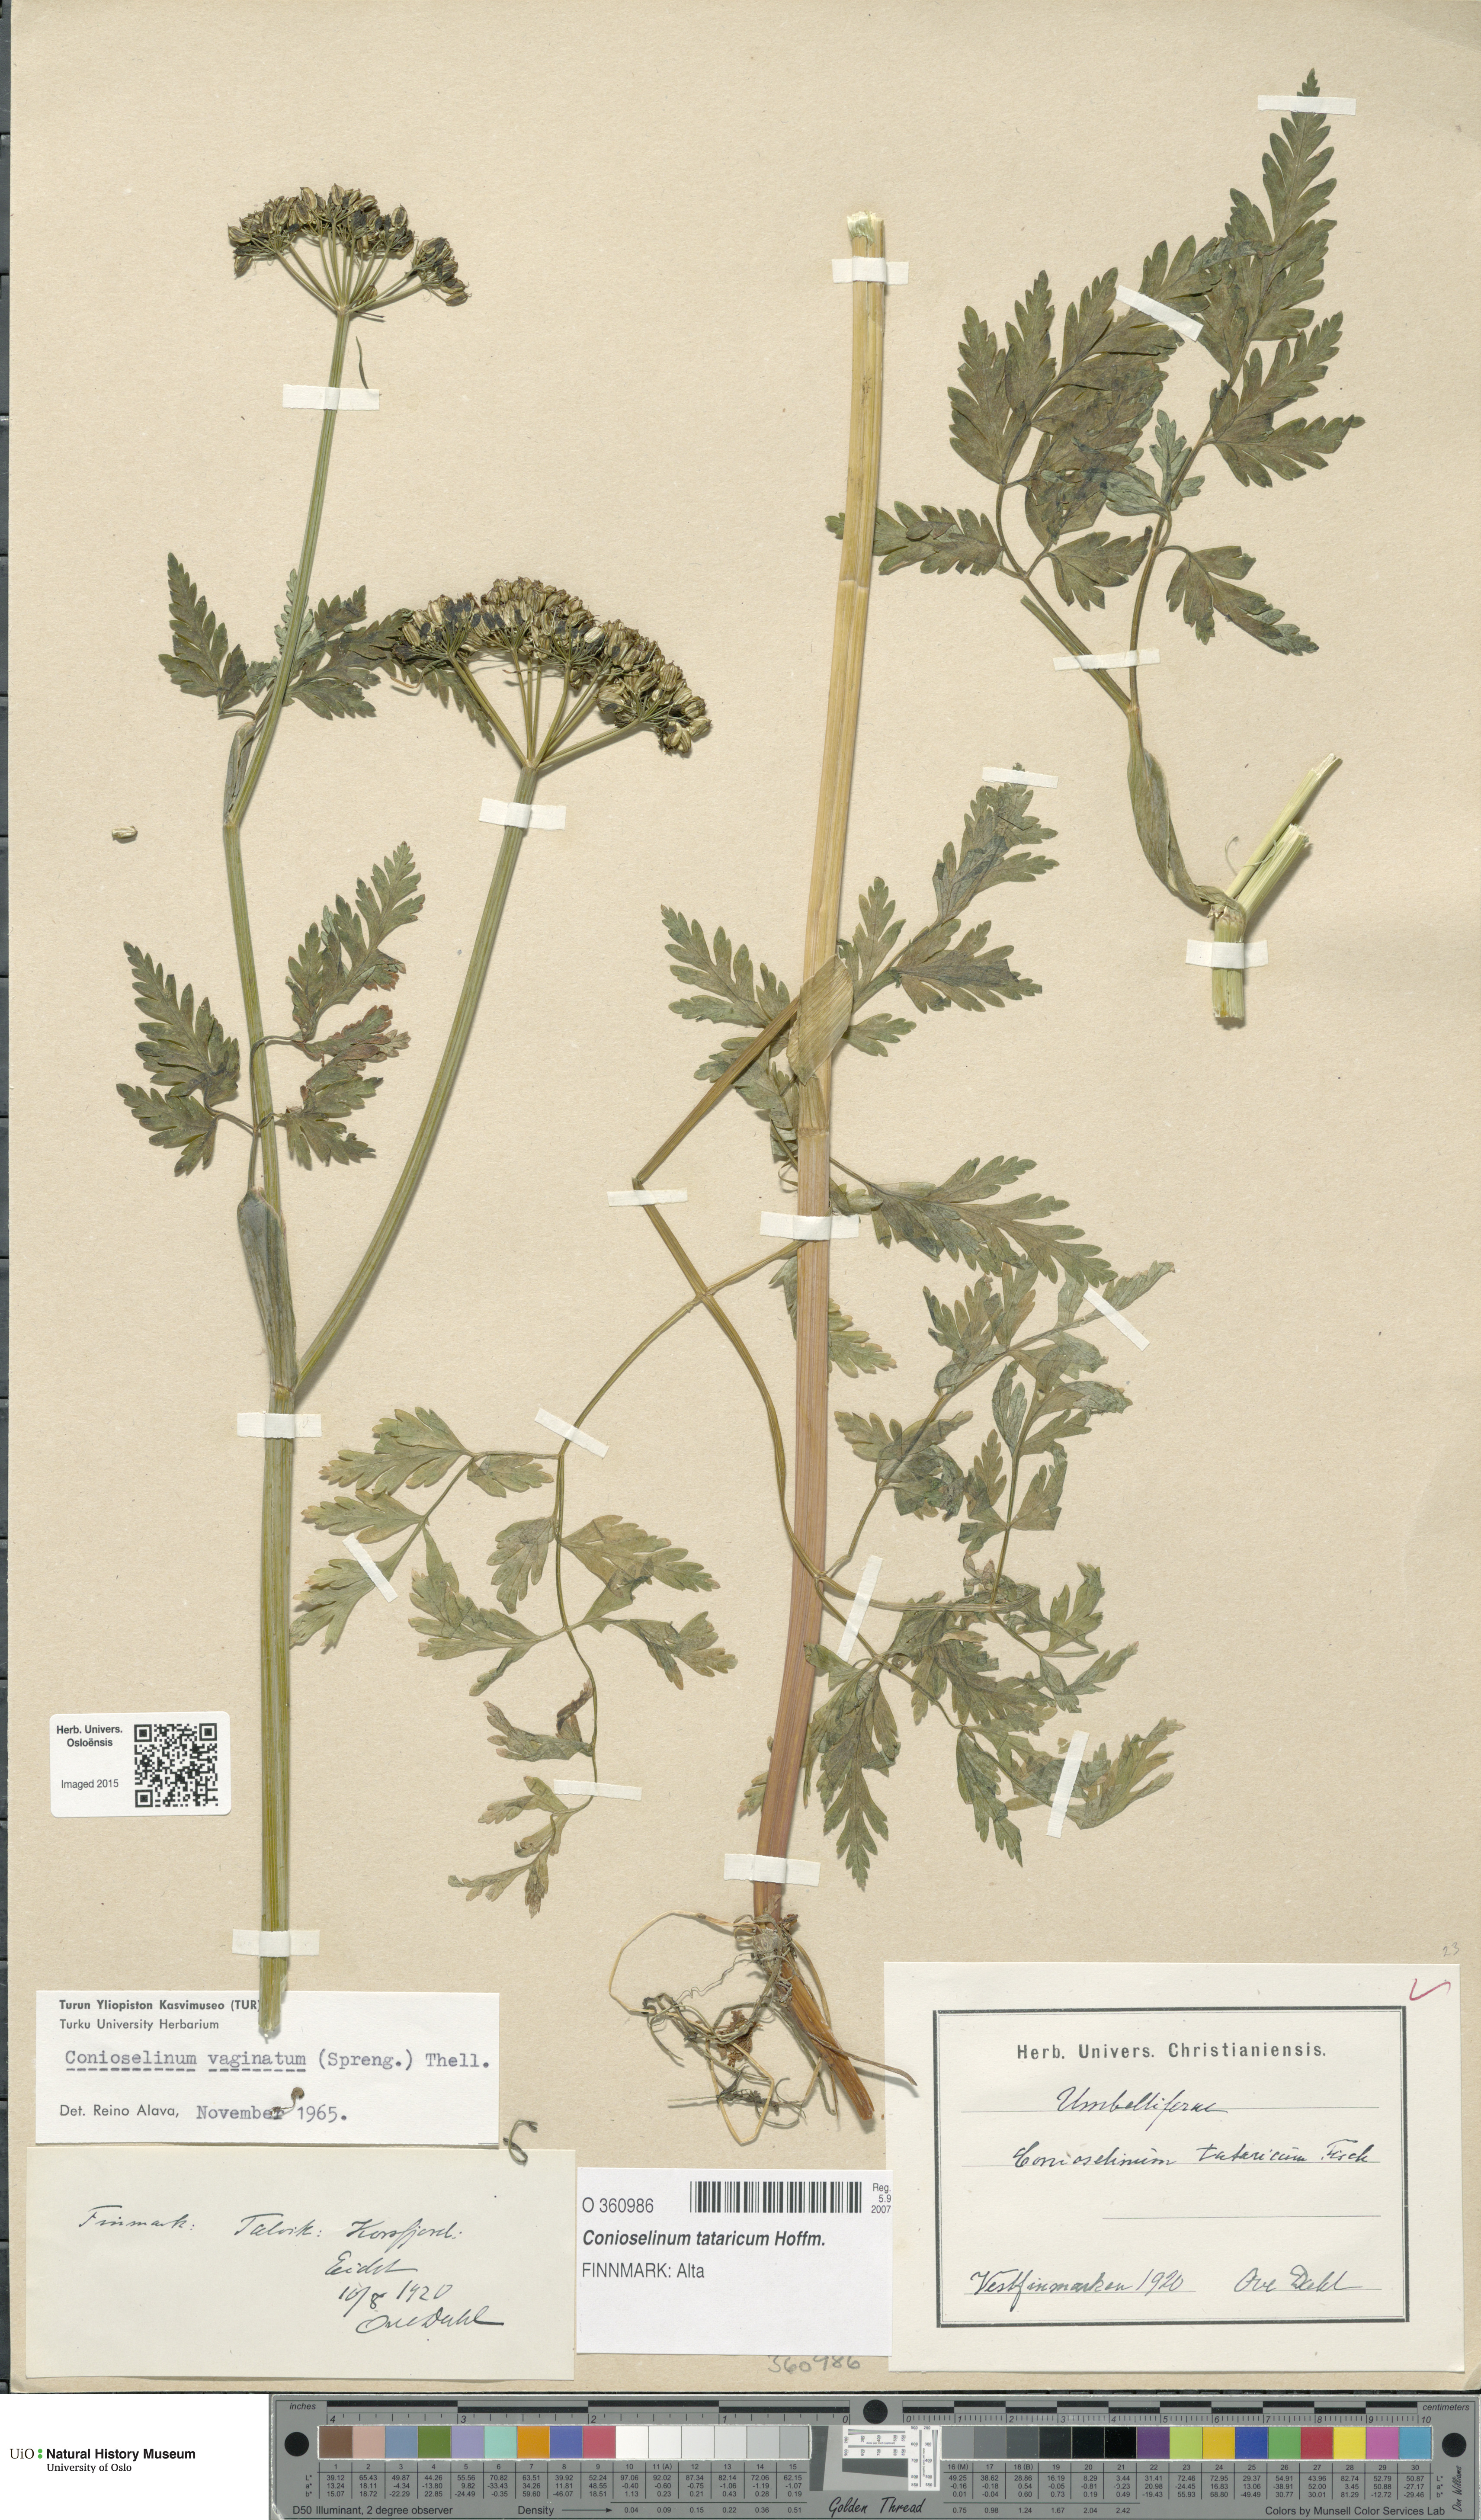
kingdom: Plantae
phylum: Tracheophyta
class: Magnoliopsida
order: Apiales
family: Apiaceae
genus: Seseli
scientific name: Seseli condensatum
